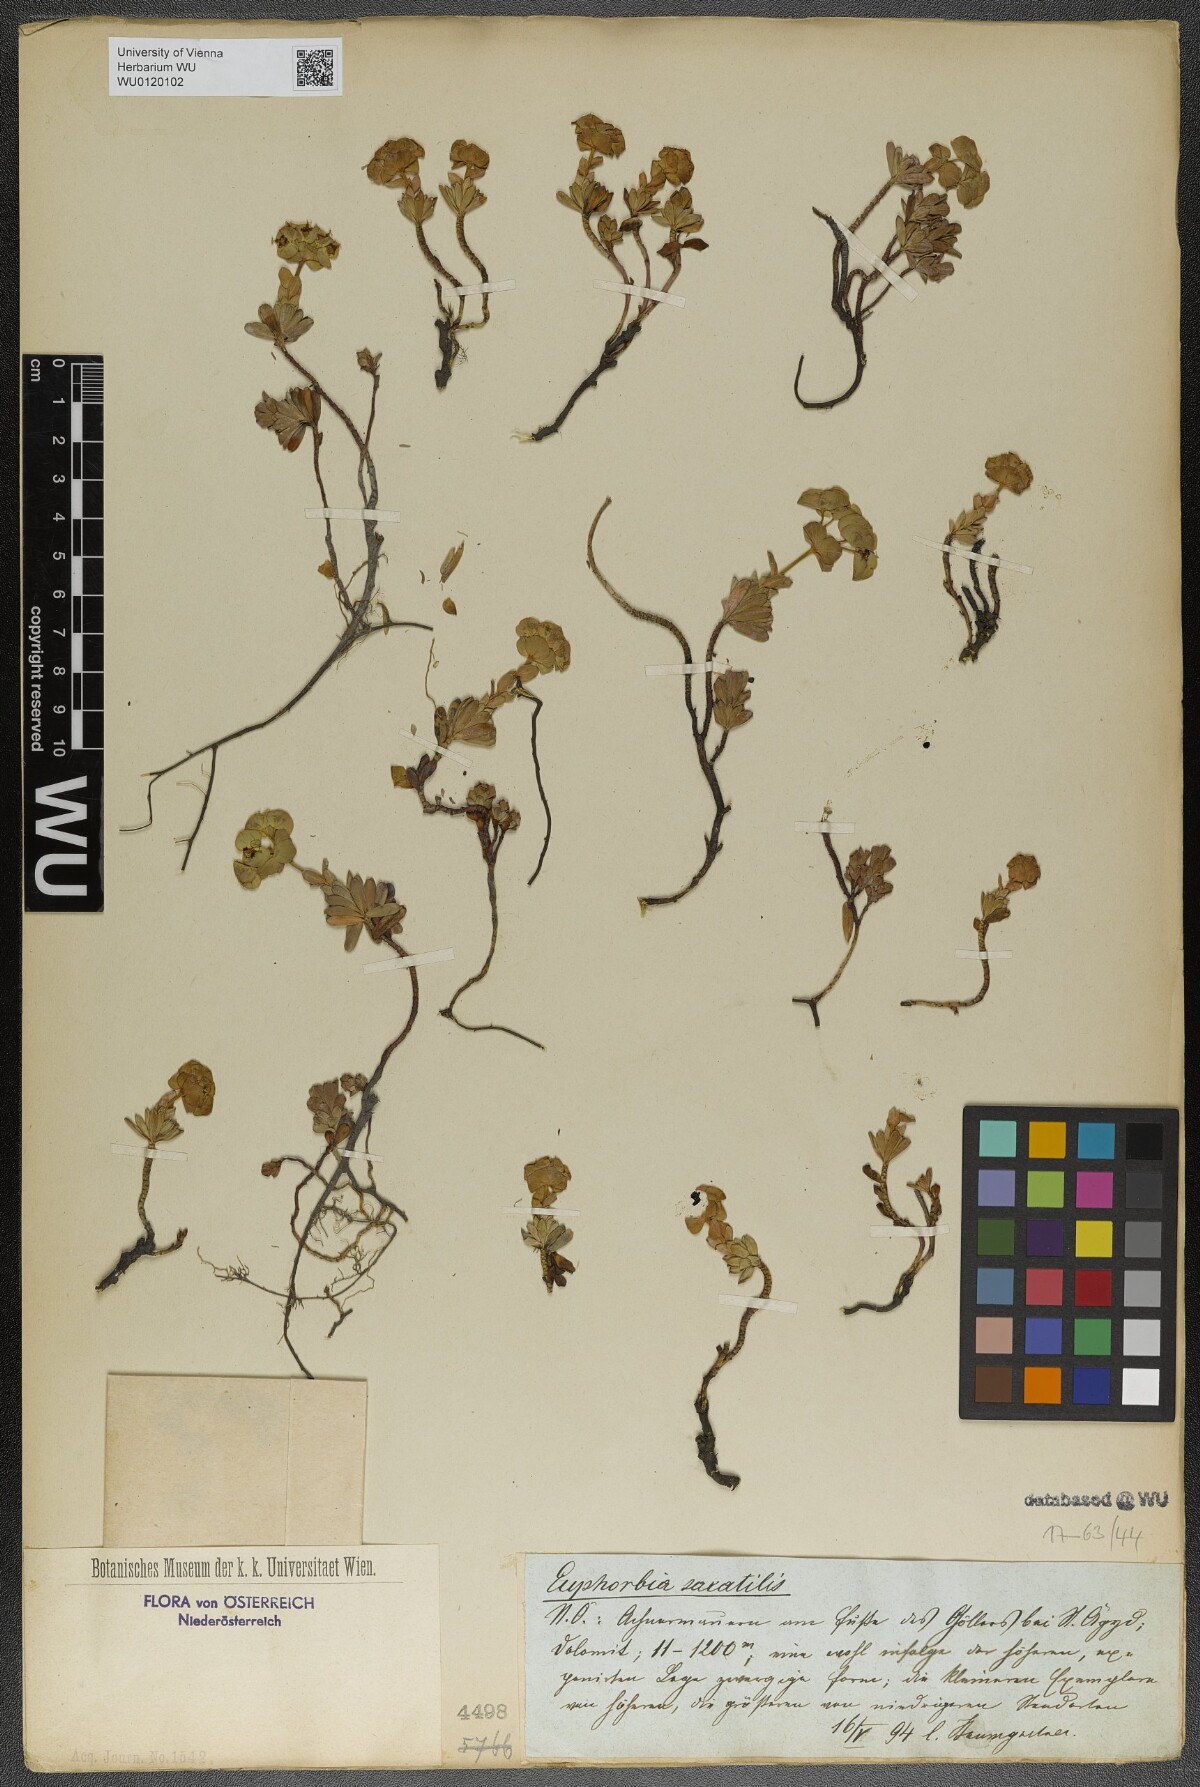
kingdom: Plantae
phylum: Tracheophyta
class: Magnoliopsida
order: Malpighiales
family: Euphorbiaceae
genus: Euphorbia
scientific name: Euphorbia saxatilis
